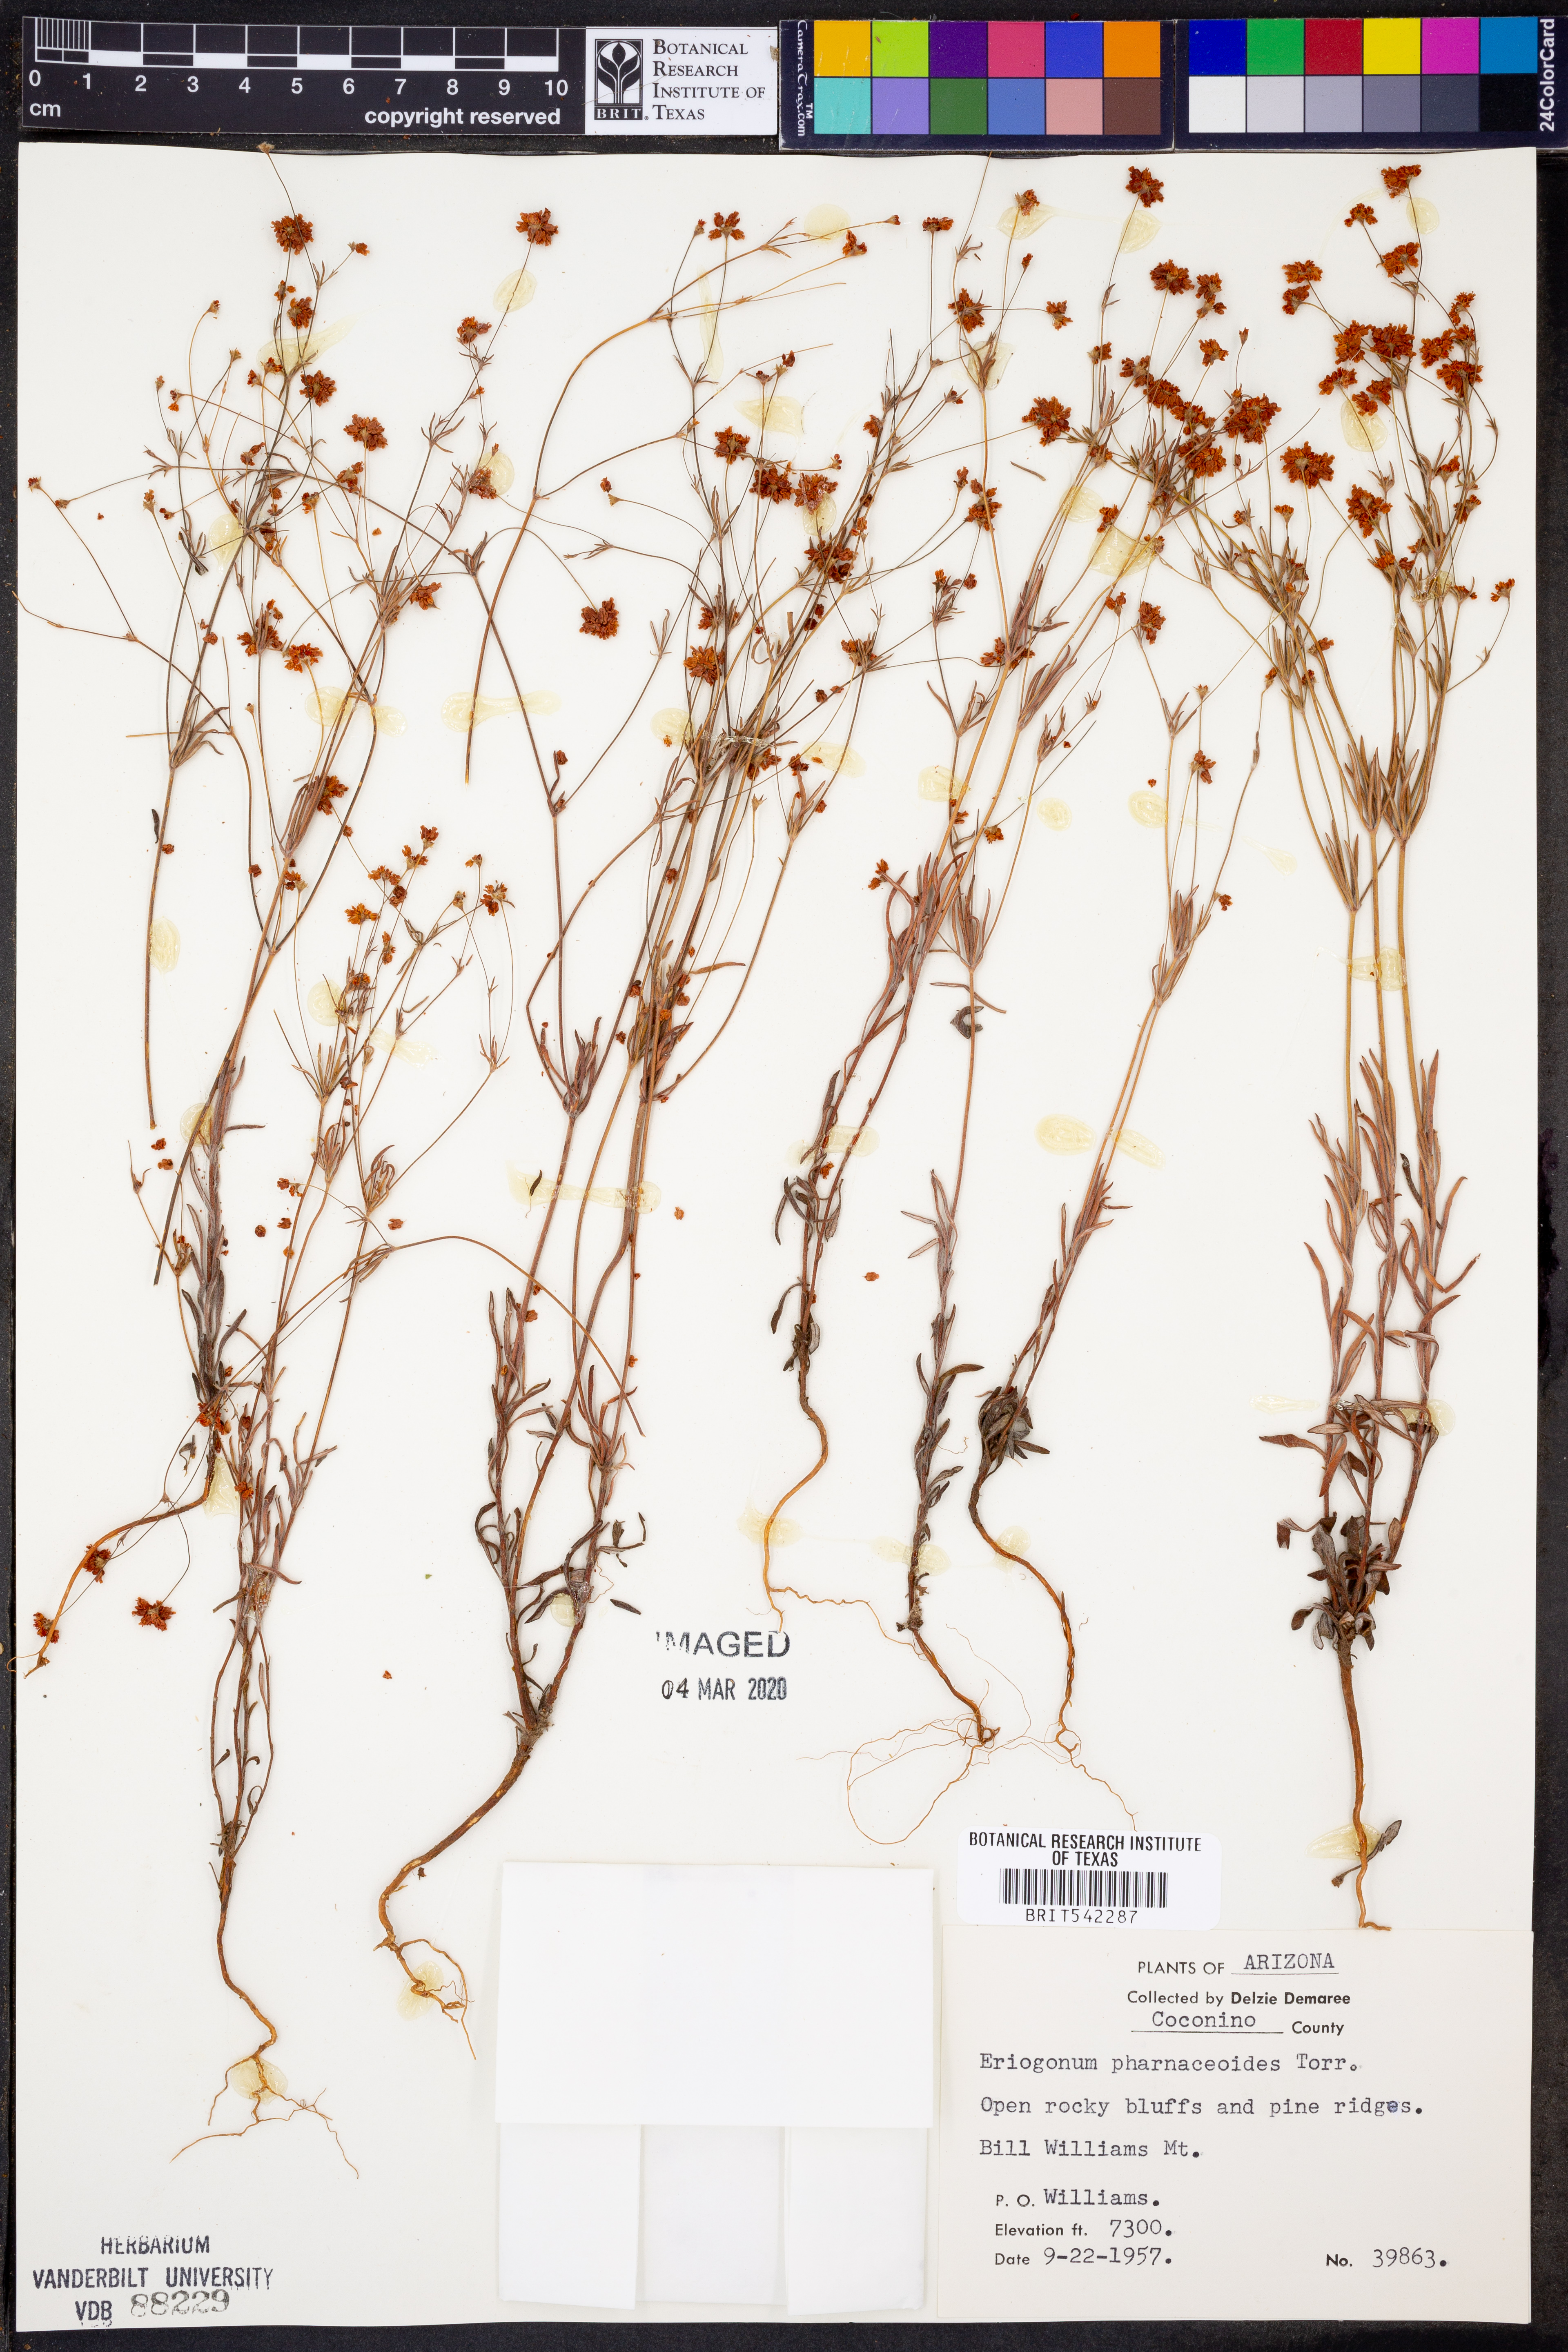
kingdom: Plantae
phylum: Tracheophyta
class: Magnoliopsida
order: Caryophyllales
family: Polygonaceae
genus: Eriogonum
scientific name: Eriogonum pharnaceoides
